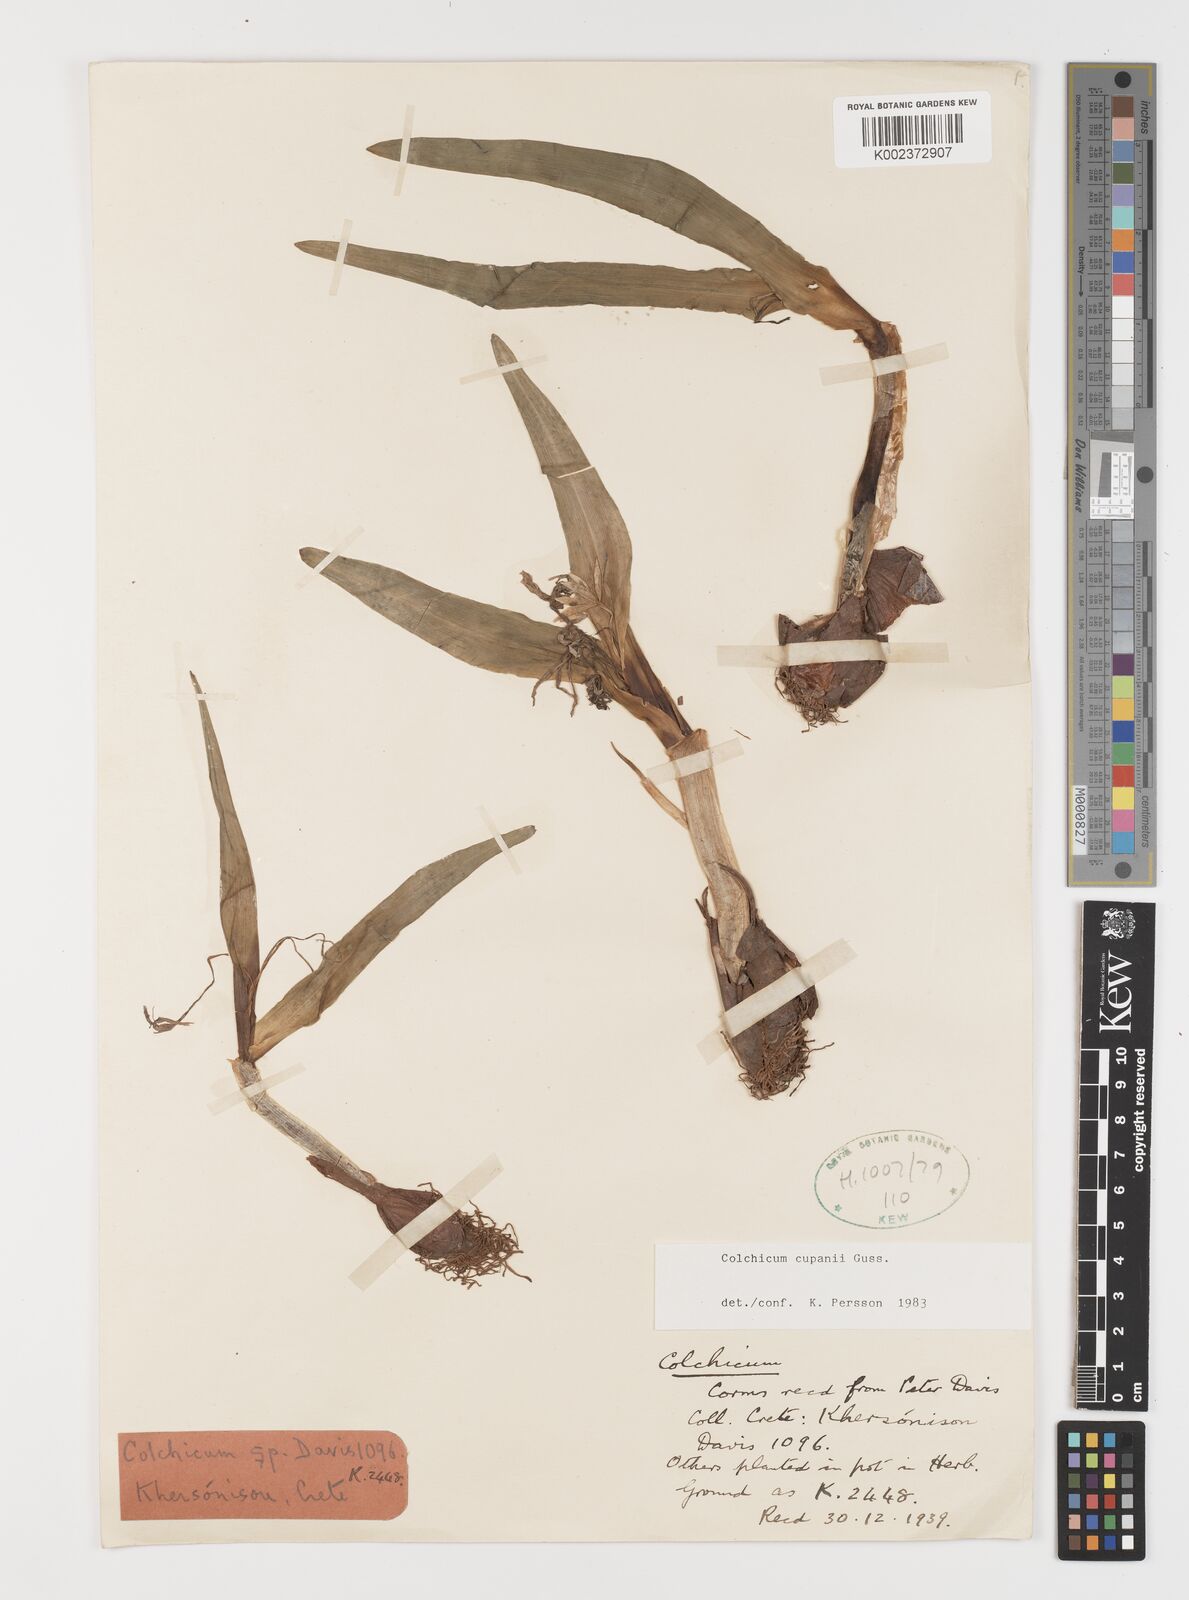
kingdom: Plantae
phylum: Tracheophyta
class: Liliopsida
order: Liliales
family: Colchicaceae
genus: Colchicum
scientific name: Colchicum cupanii
